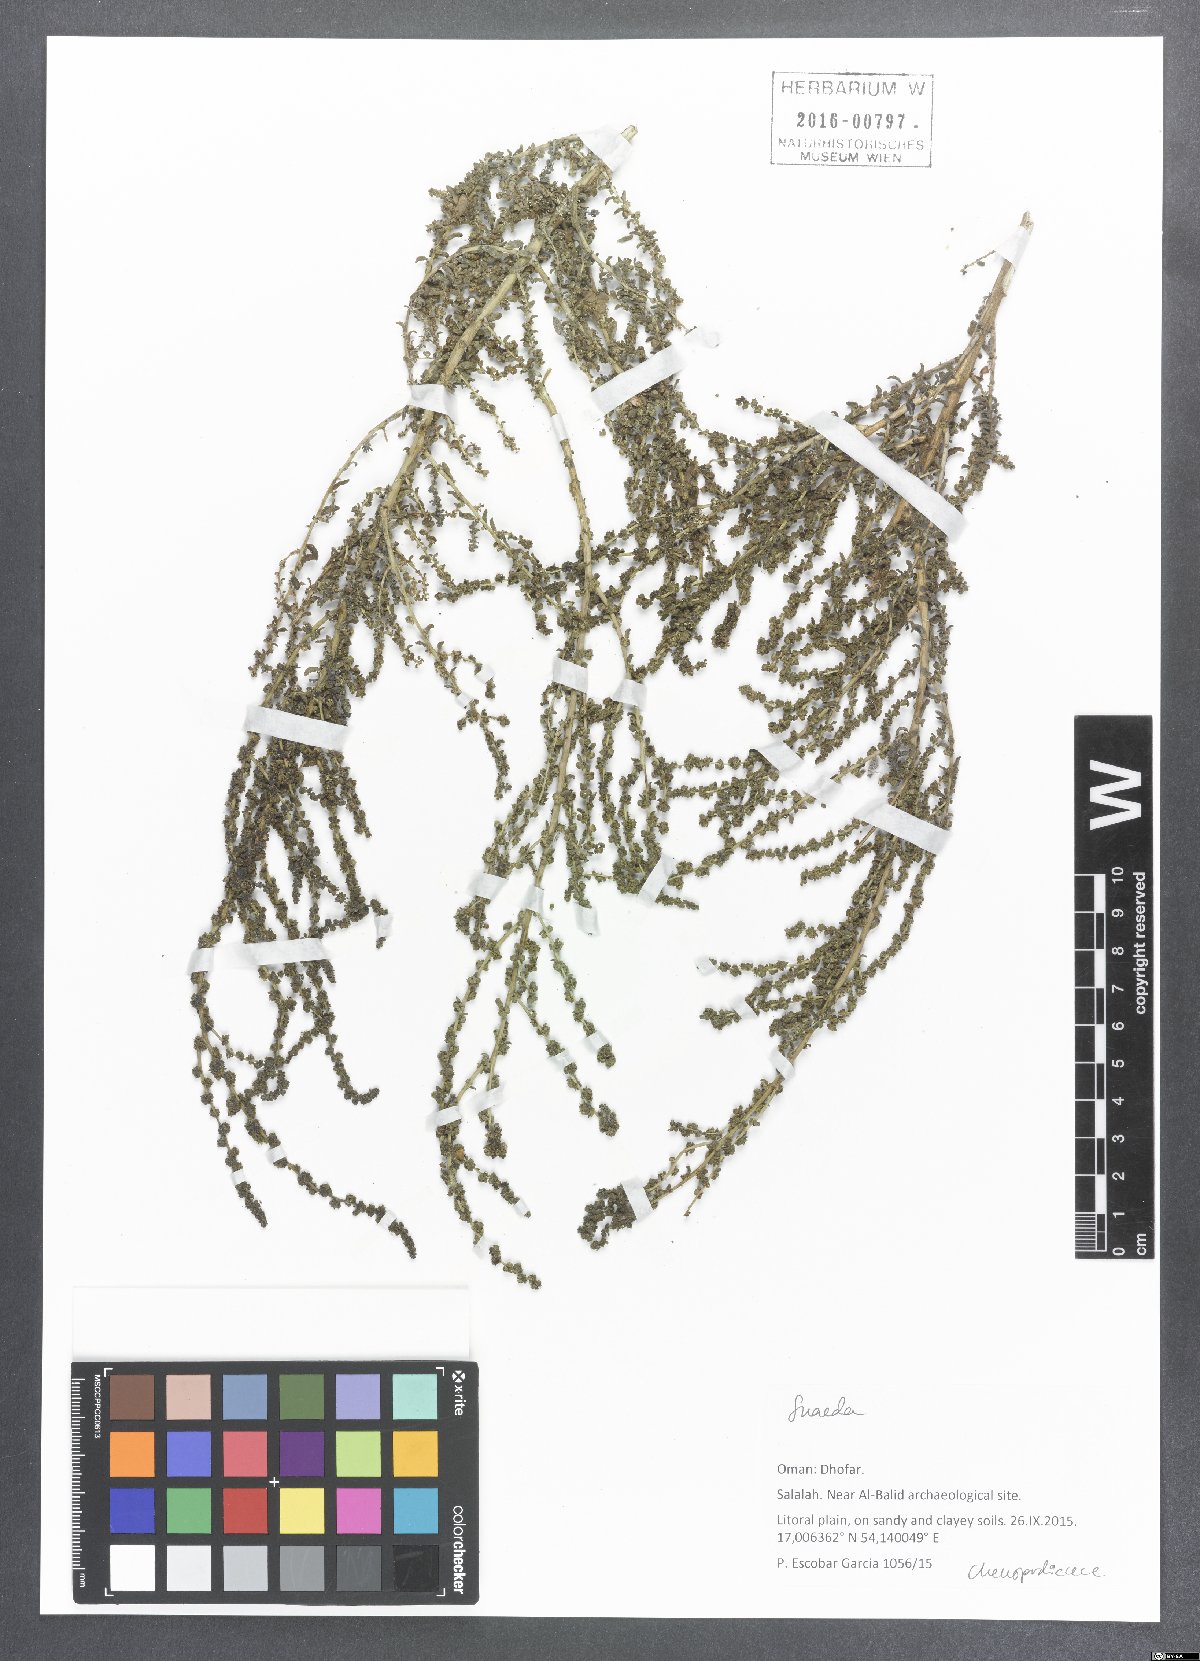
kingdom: Plantae
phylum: Tracheophyta
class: Magnoliopsida
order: Caryophyllales
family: Amaranthaceae
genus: Suaeda
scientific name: Suaeda
